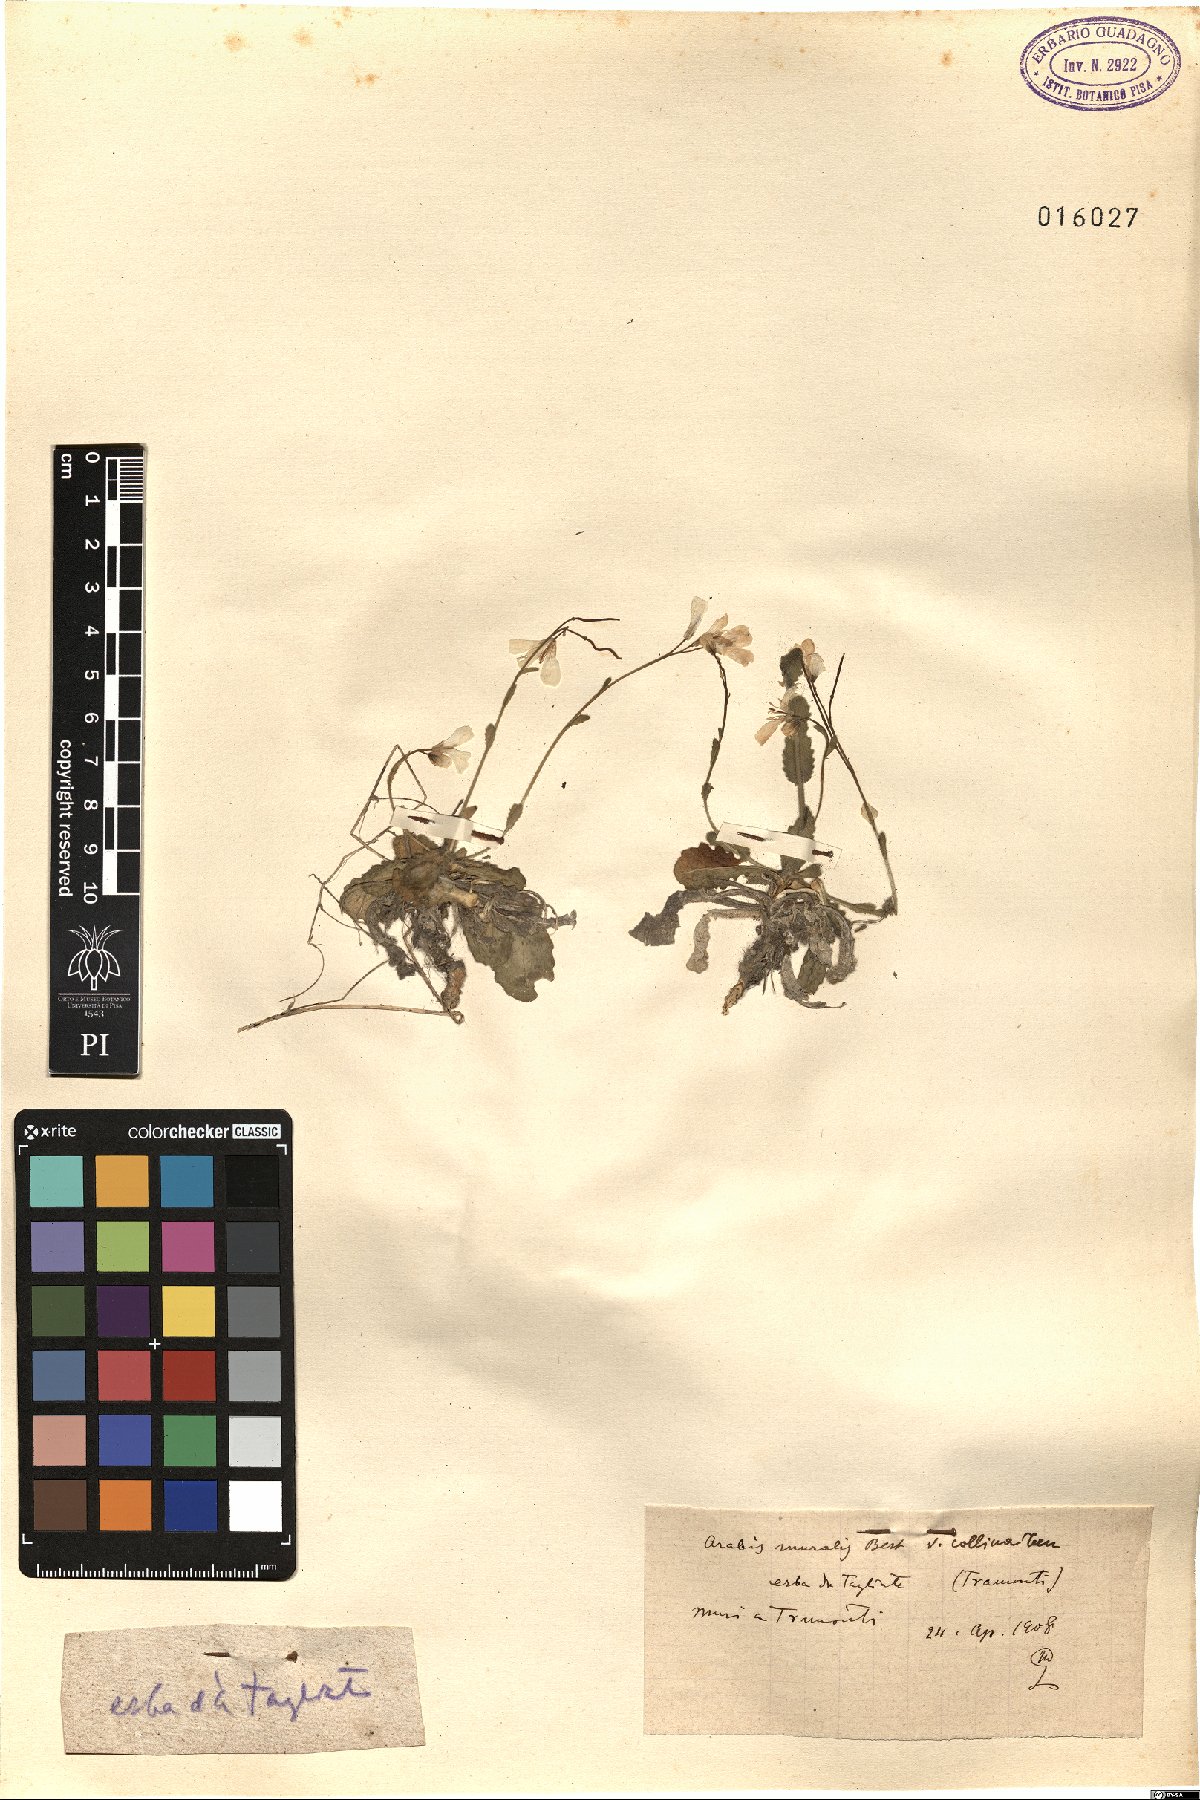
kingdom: Plantae
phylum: Tracheophyta
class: Magnoliopsida
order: Brassicales
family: Brassicaceae
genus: Arabis
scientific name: Arabis collina
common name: Rosy cress
